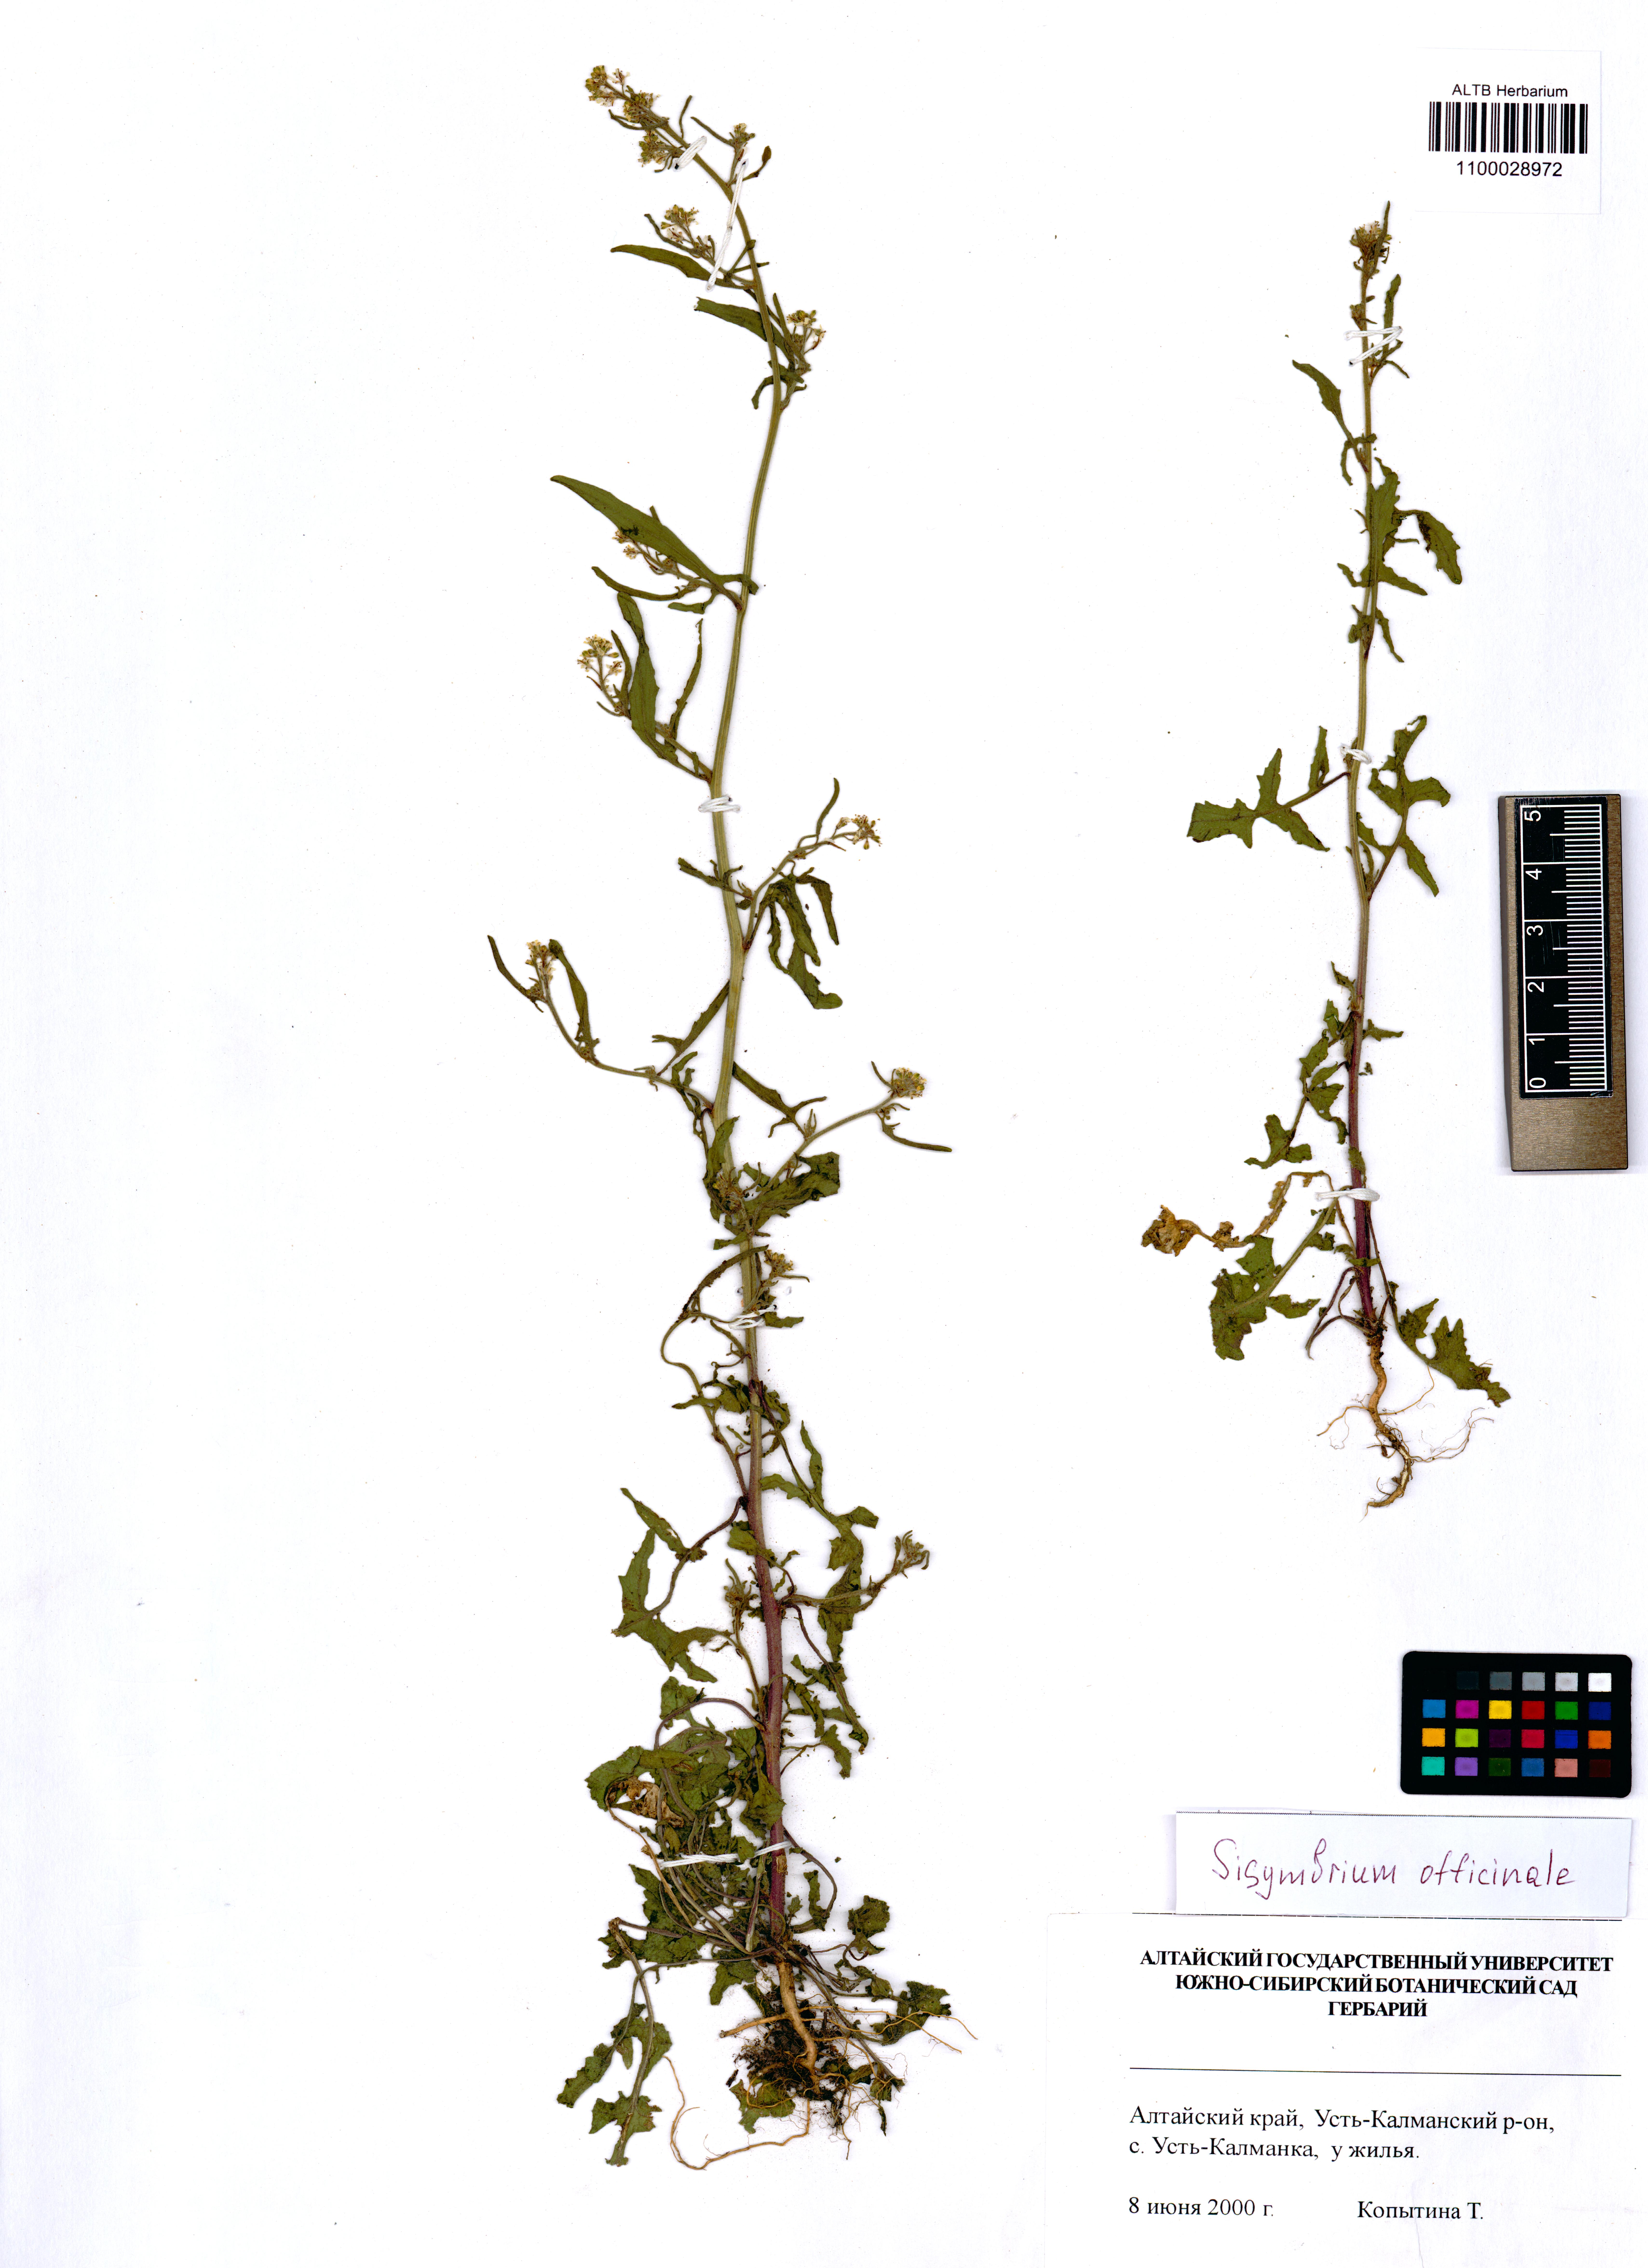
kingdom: Plantae
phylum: Tracheophyta
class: Magnoliopsida
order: Brassicales
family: Brassicaceae
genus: Sisymbrium
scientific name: Sisymbrium officinale
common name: Hedge mustard
